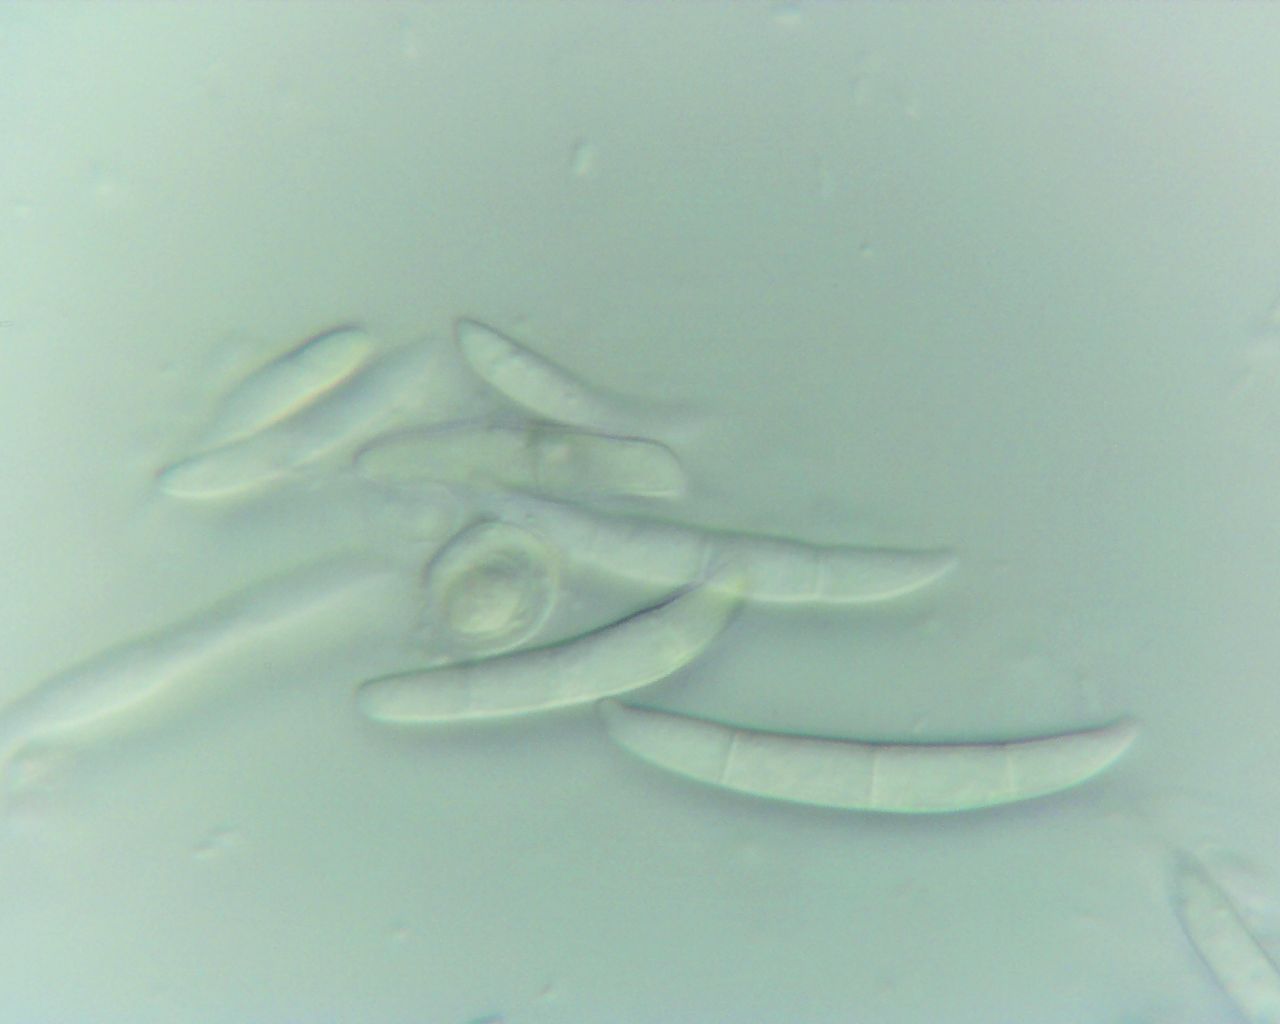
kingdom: Fungi
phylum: Ascomycota
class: Sordariomycetes
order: Hypocreales
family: Nectriaceae
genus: Fusarium
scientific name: Fusarium
